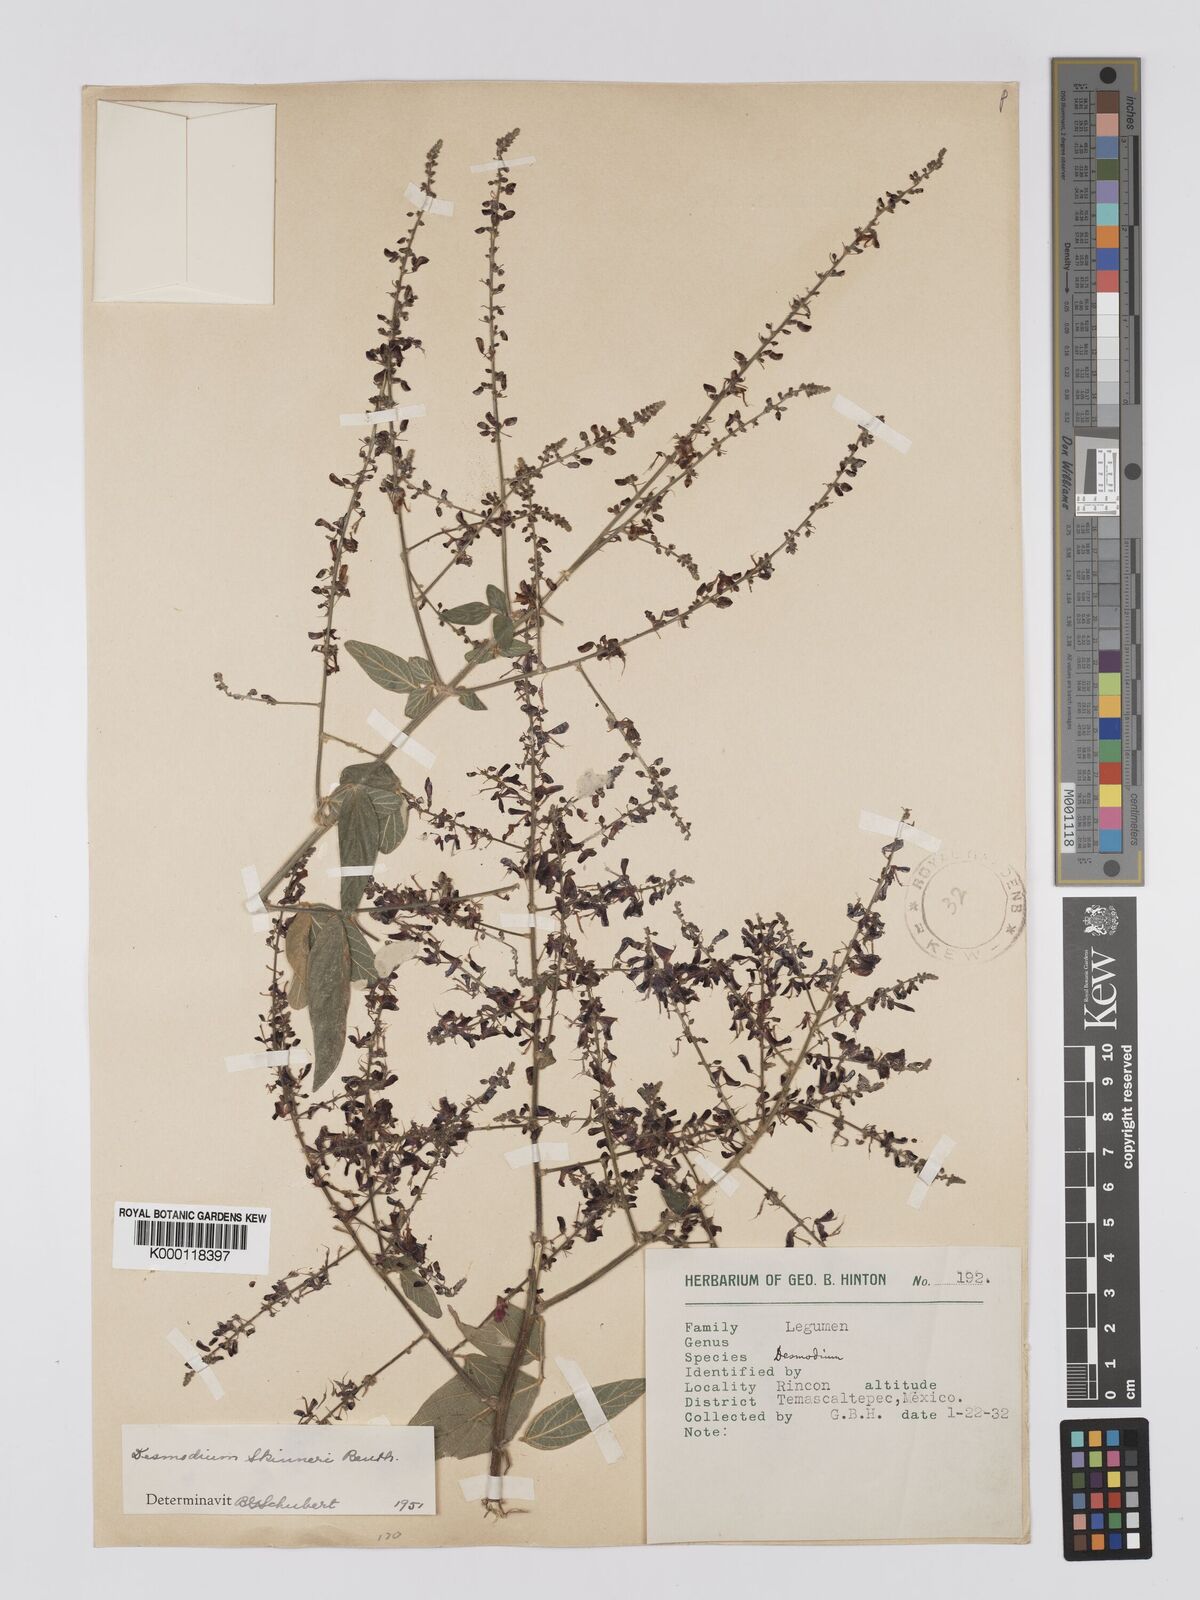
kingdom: Plantae
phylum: Tracheophyta
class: Magnoliopsida
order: Fabales
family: Fabaceae
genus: Desmodium
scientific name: Desmodium skinneri
